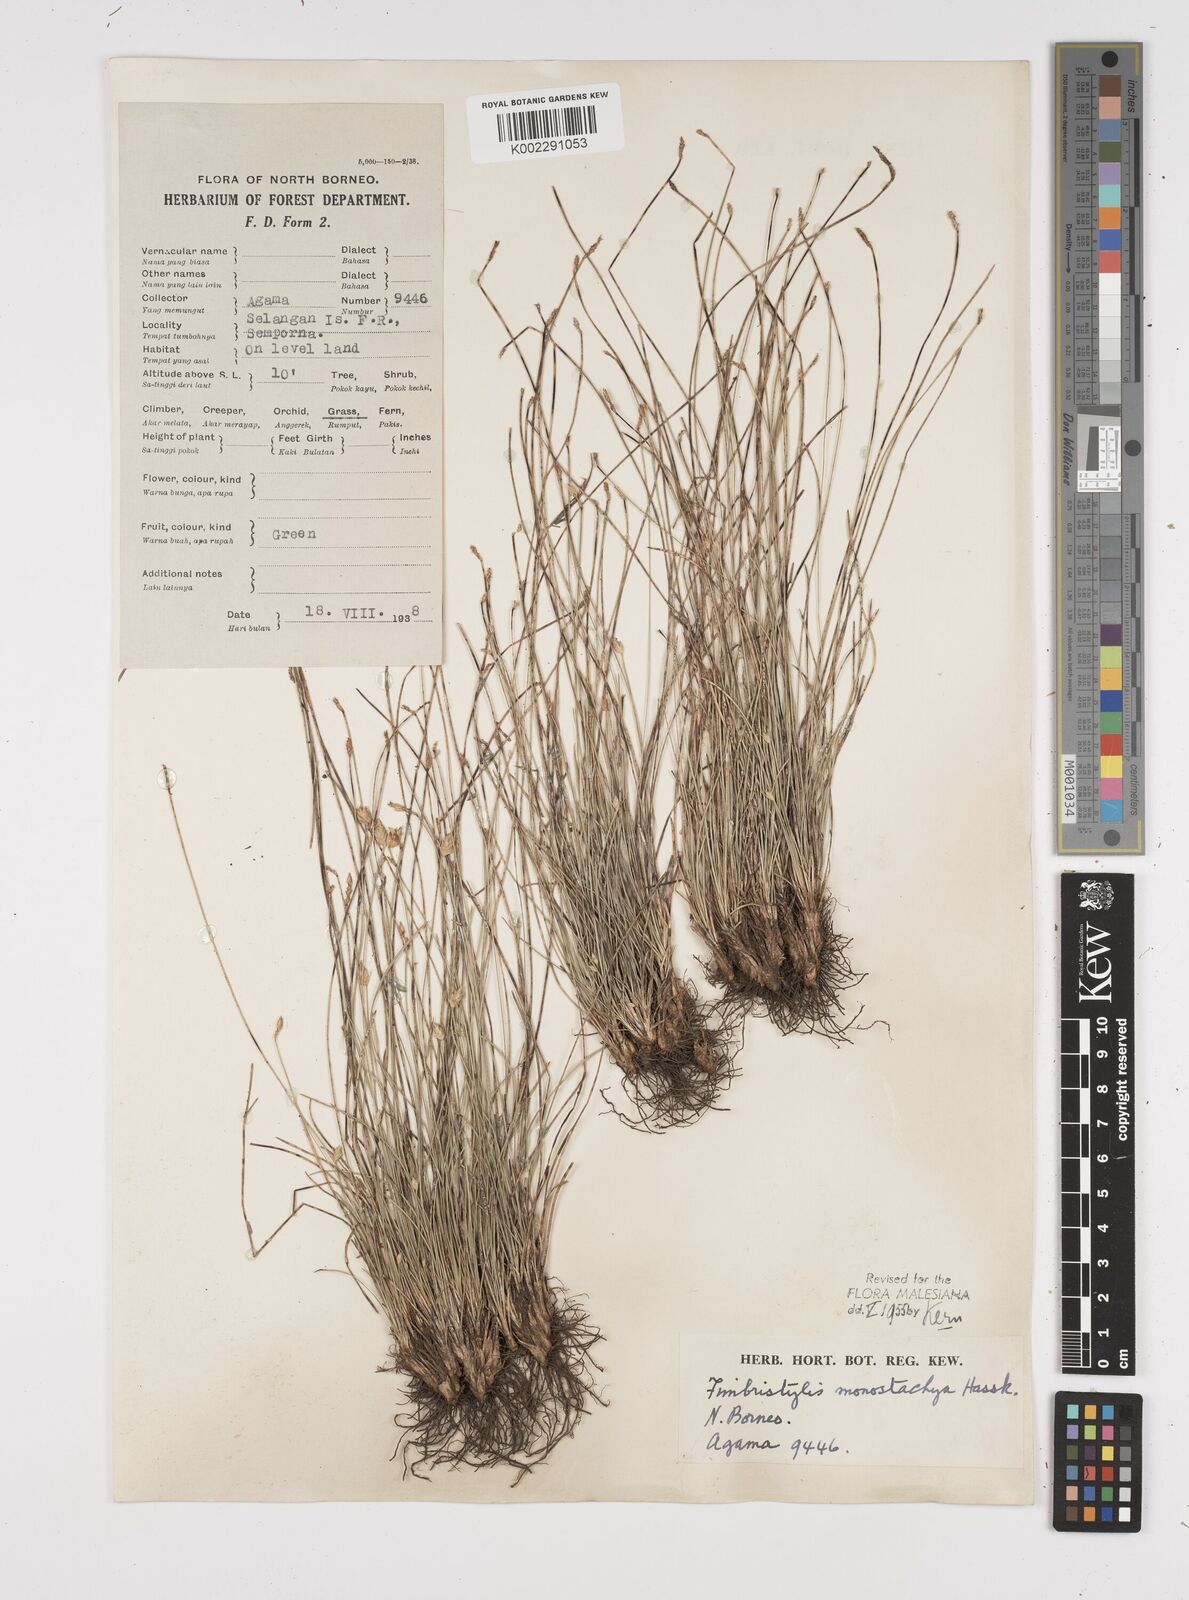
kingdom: Plantae
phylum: Tracheophyta
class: Liliopsida
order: Poales
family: Cyperaceae
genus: Abildgaardia
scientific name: Abildgaardia ovata
